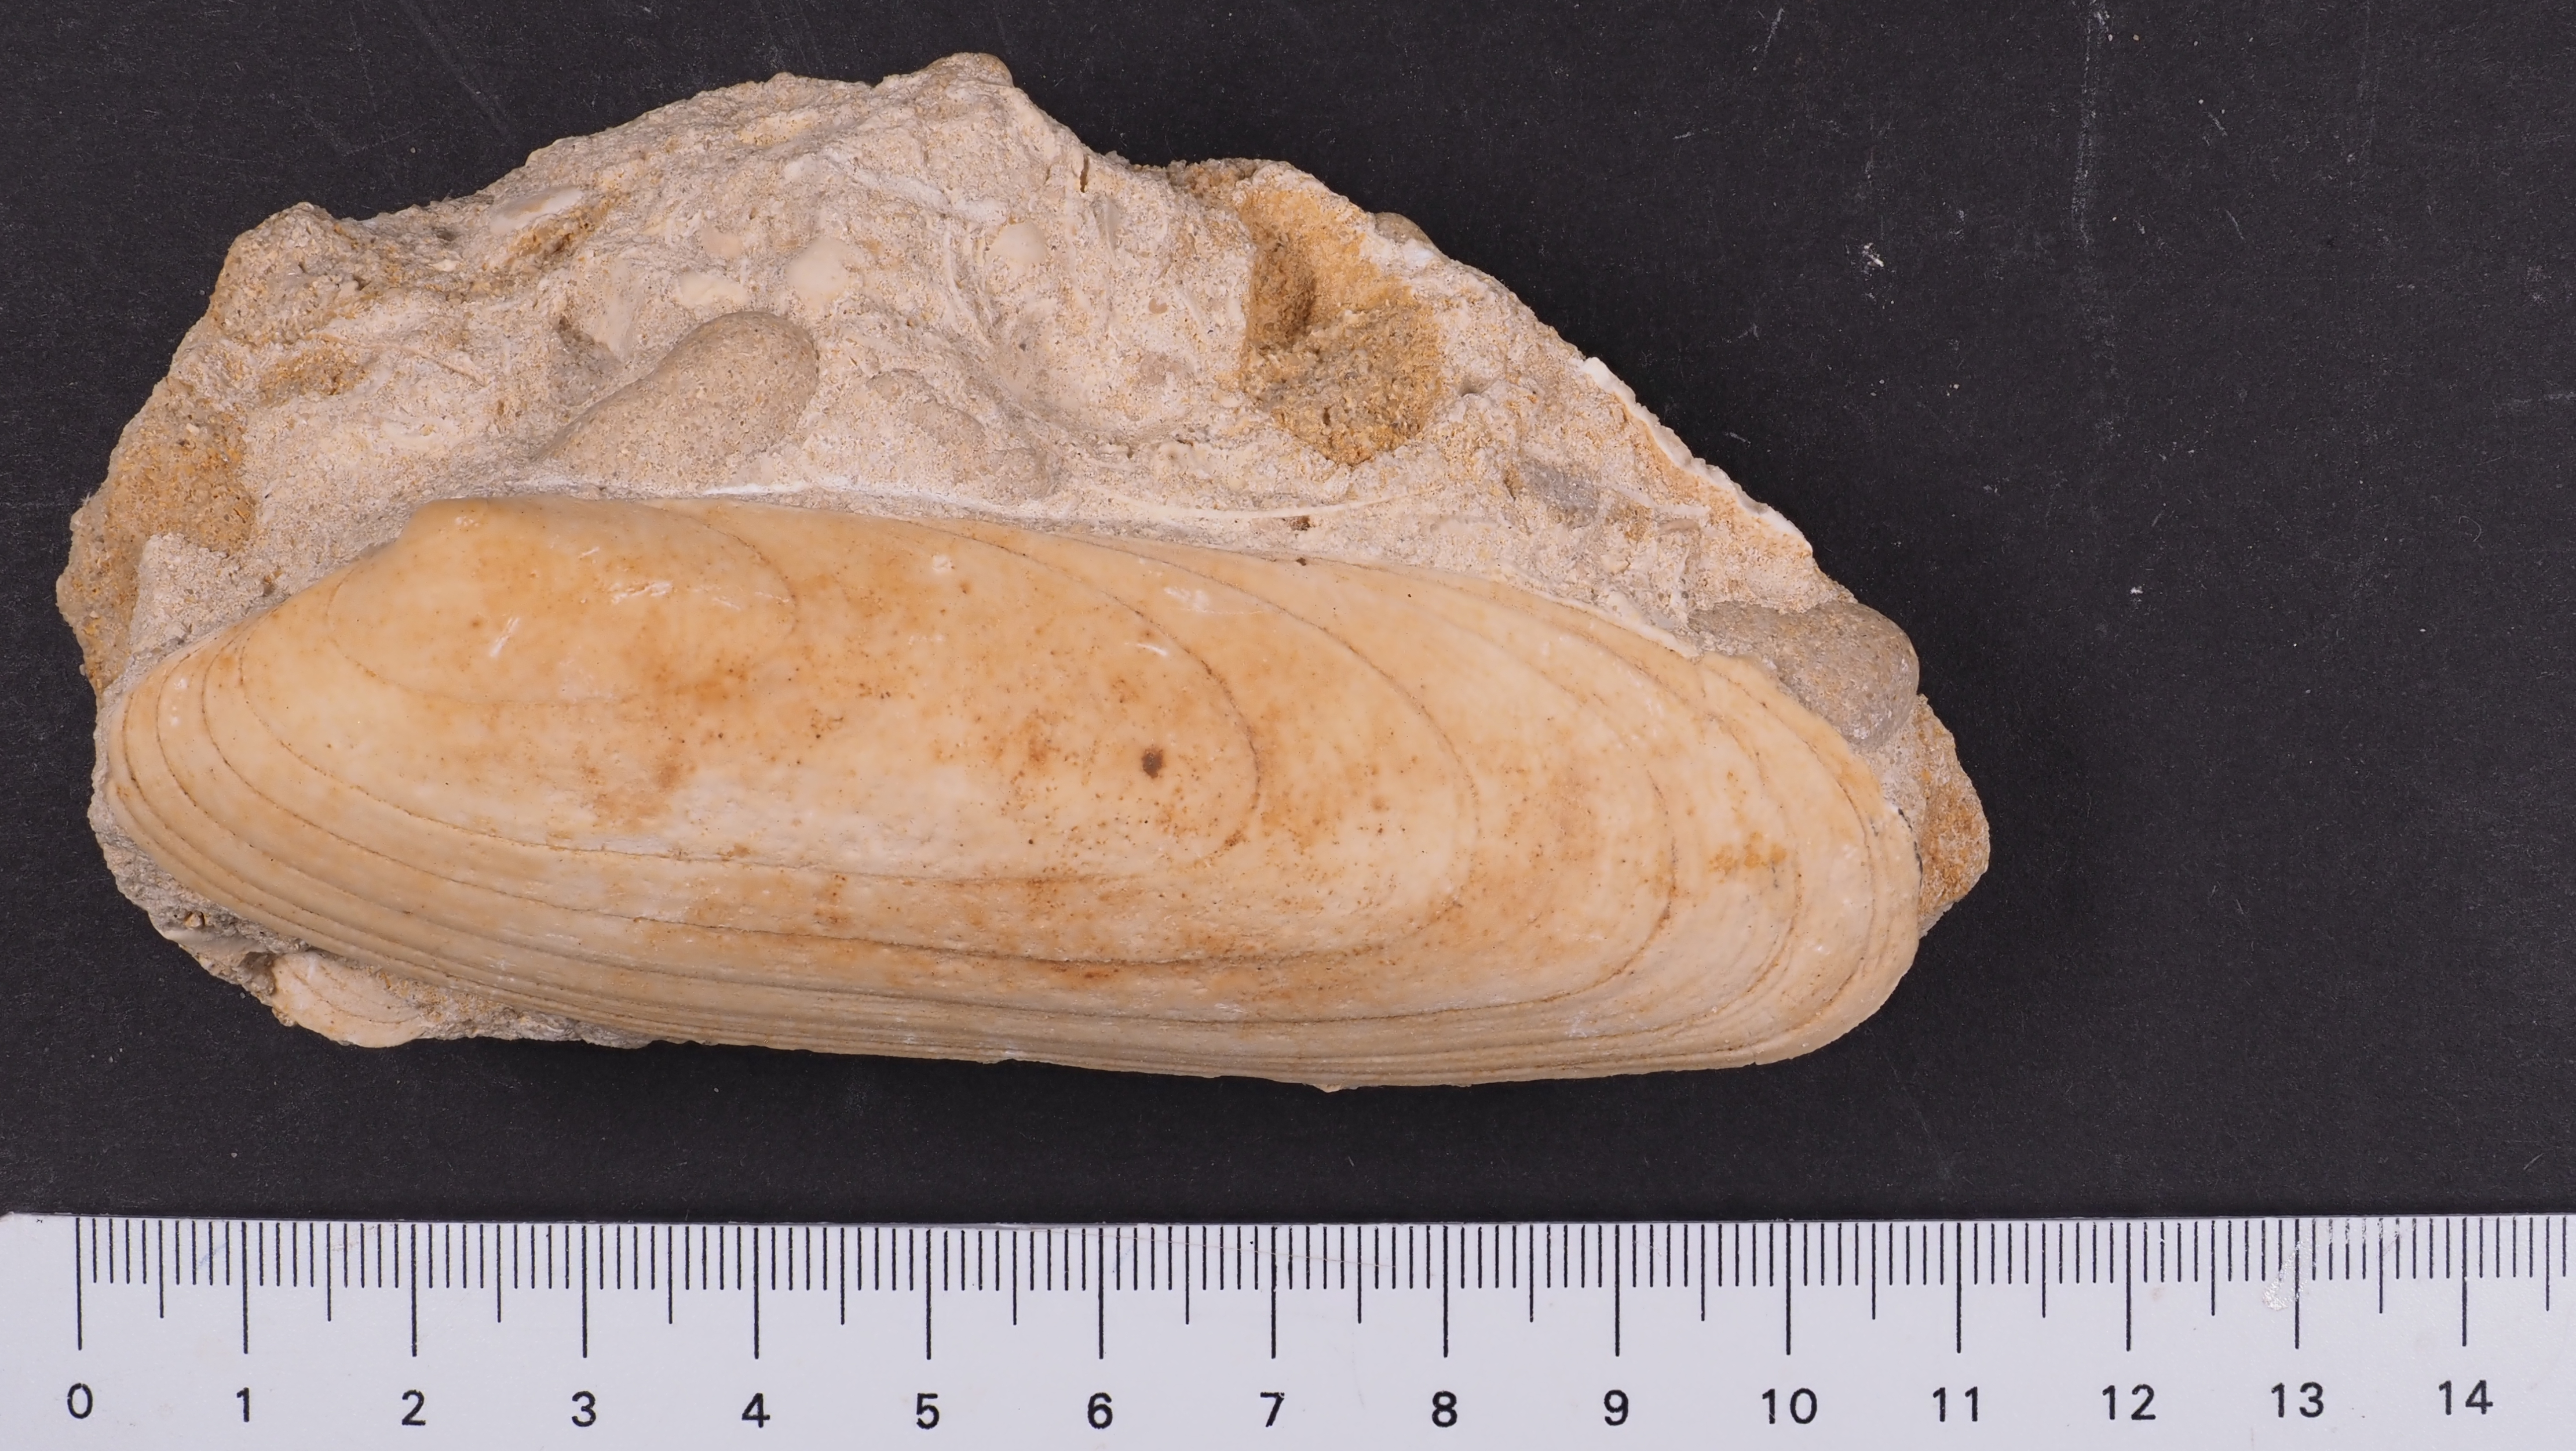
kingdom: Animalia
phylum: Mollusca
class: Bivalvia
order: Carditida
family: Cardiniidae
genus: Cardinia
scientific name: Cardinia
